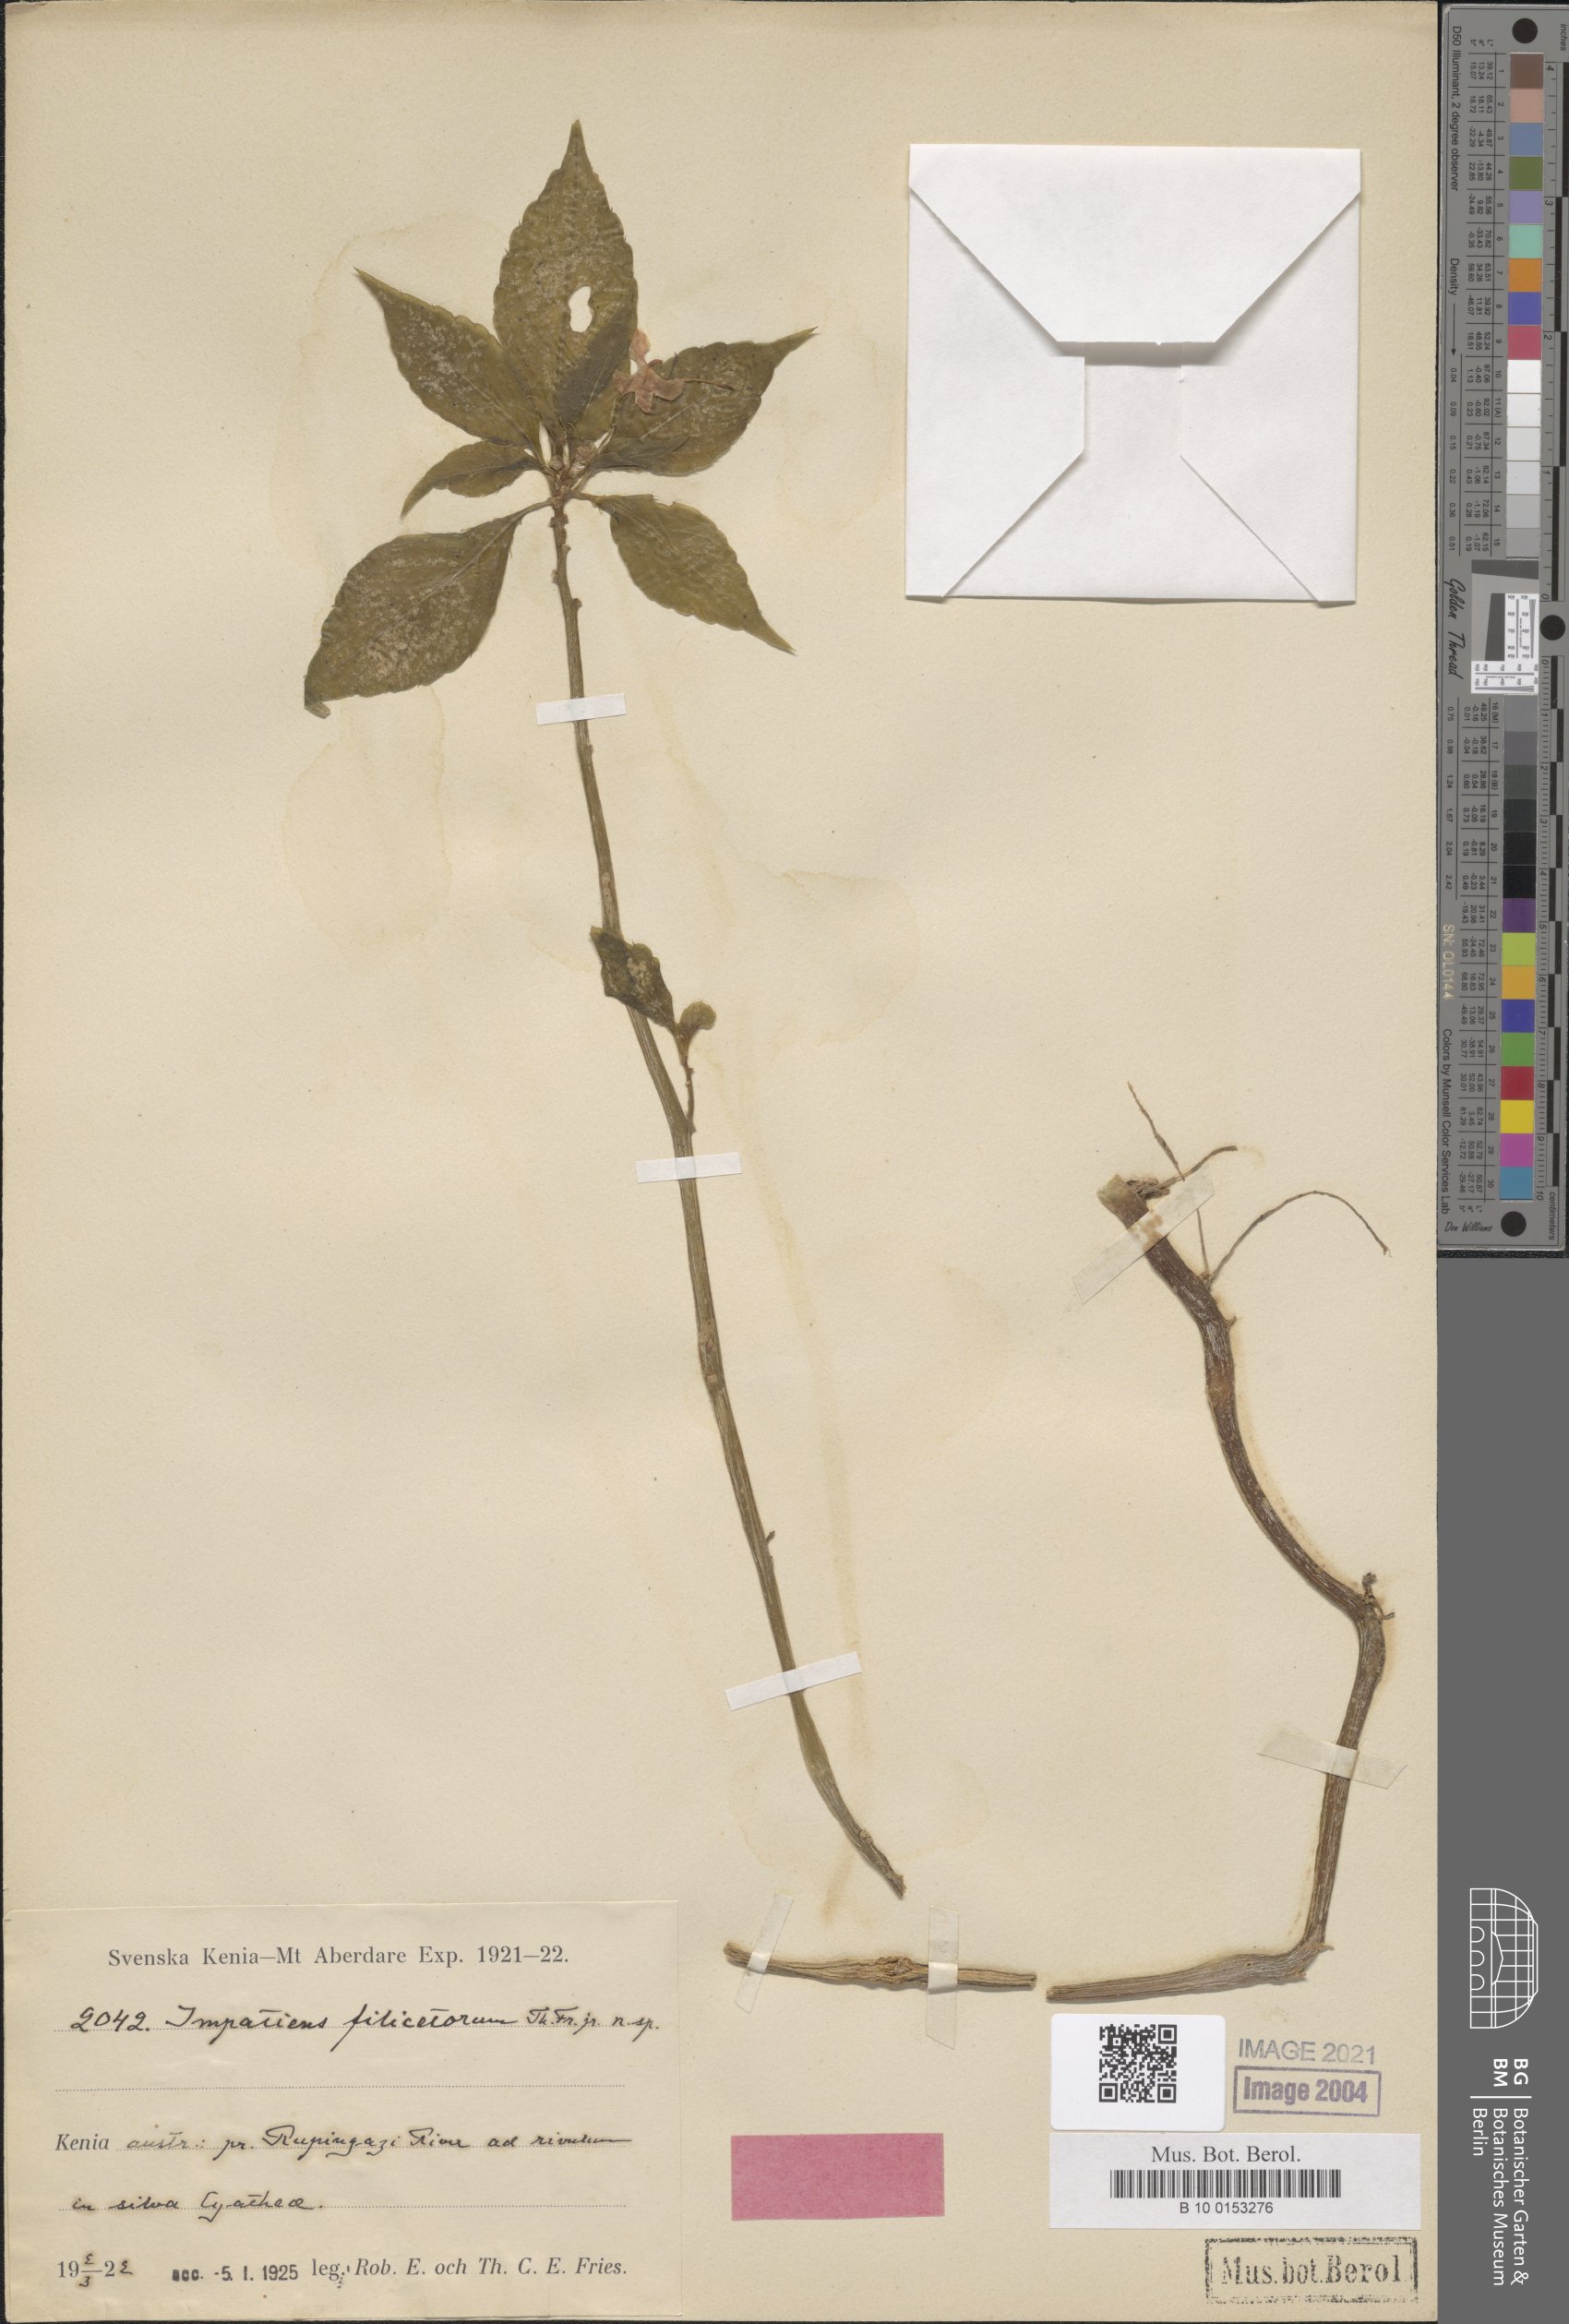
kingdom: Plantae
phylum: Tracheophyta
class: Magnoliopsida
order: Ericales
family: Balsaminaceae
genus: Impatiens
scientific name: Impatiens pseudoviola
